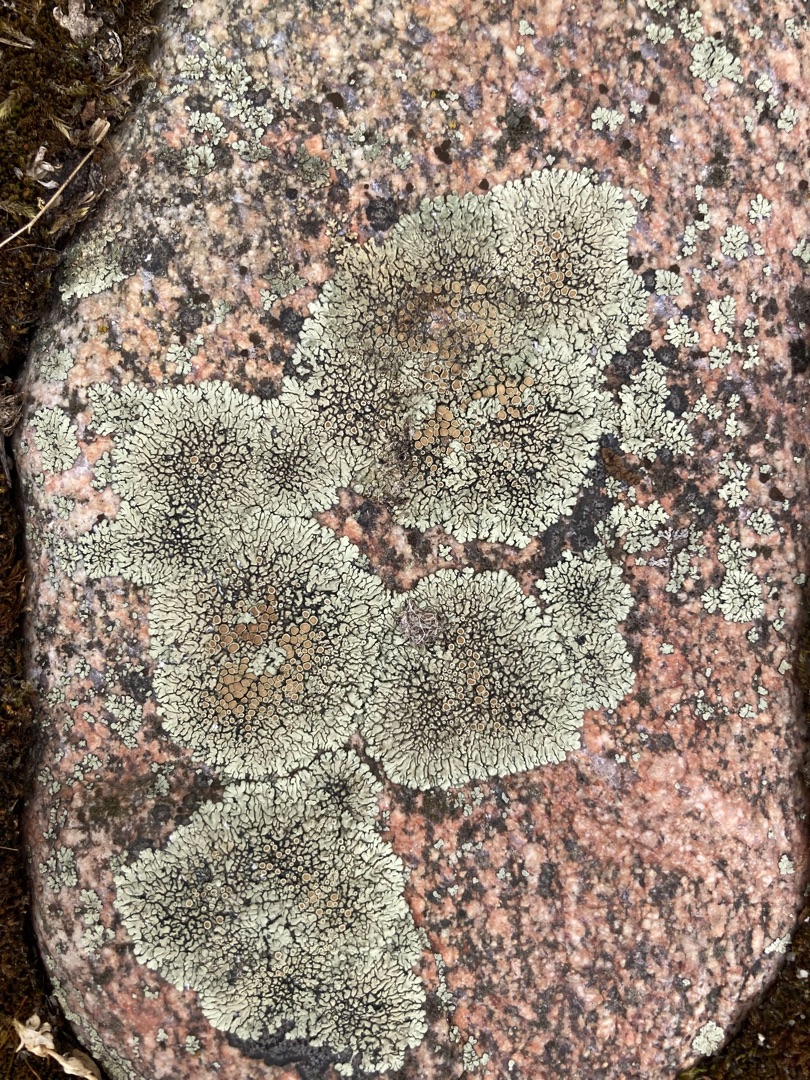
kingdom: Fungi
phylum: Ascomycota
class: Lecanoromycetes
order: Lecanorales
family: Lecanoraceae
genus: Protoparmeliopsis
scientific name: Protoparmeliopsis muralis
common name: Randfliget kantskivelav
